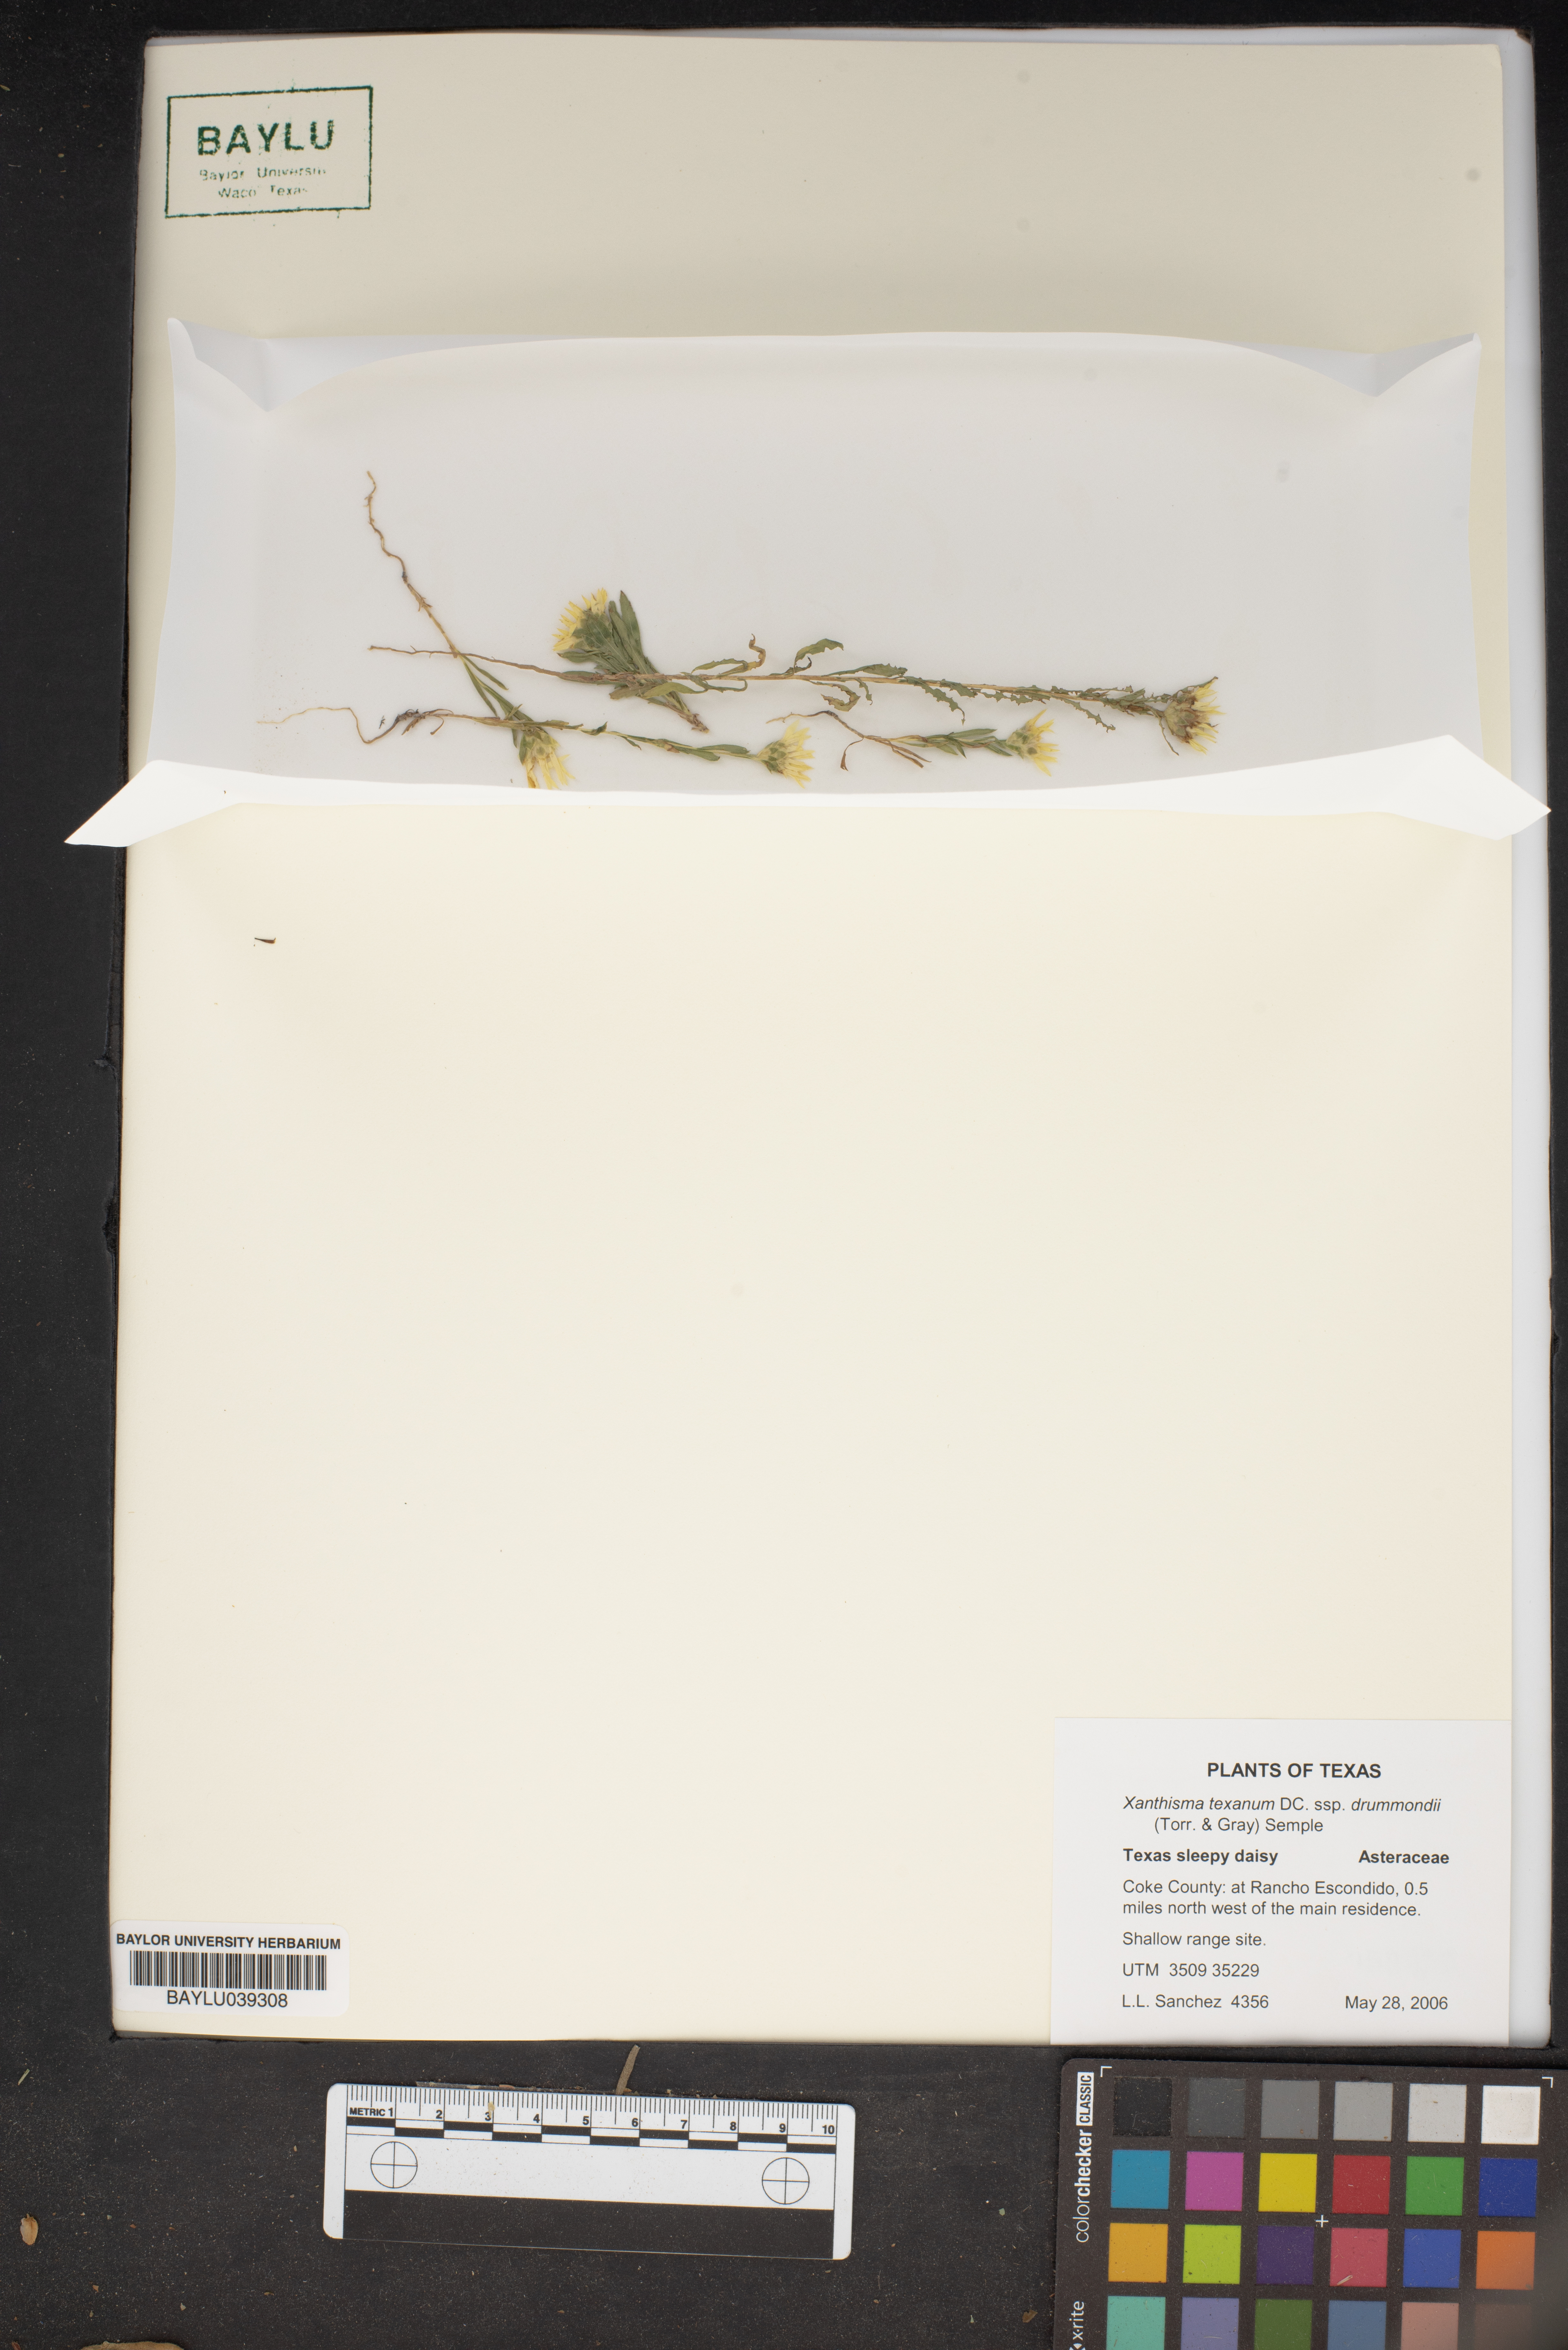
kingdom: Plantae
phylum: Tracheophyta
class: Magnoliopsida
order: Asterales
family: Asteraceae
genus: Xanthisma
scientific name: Xanthisma texanum
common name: Texas sleepy daisy
